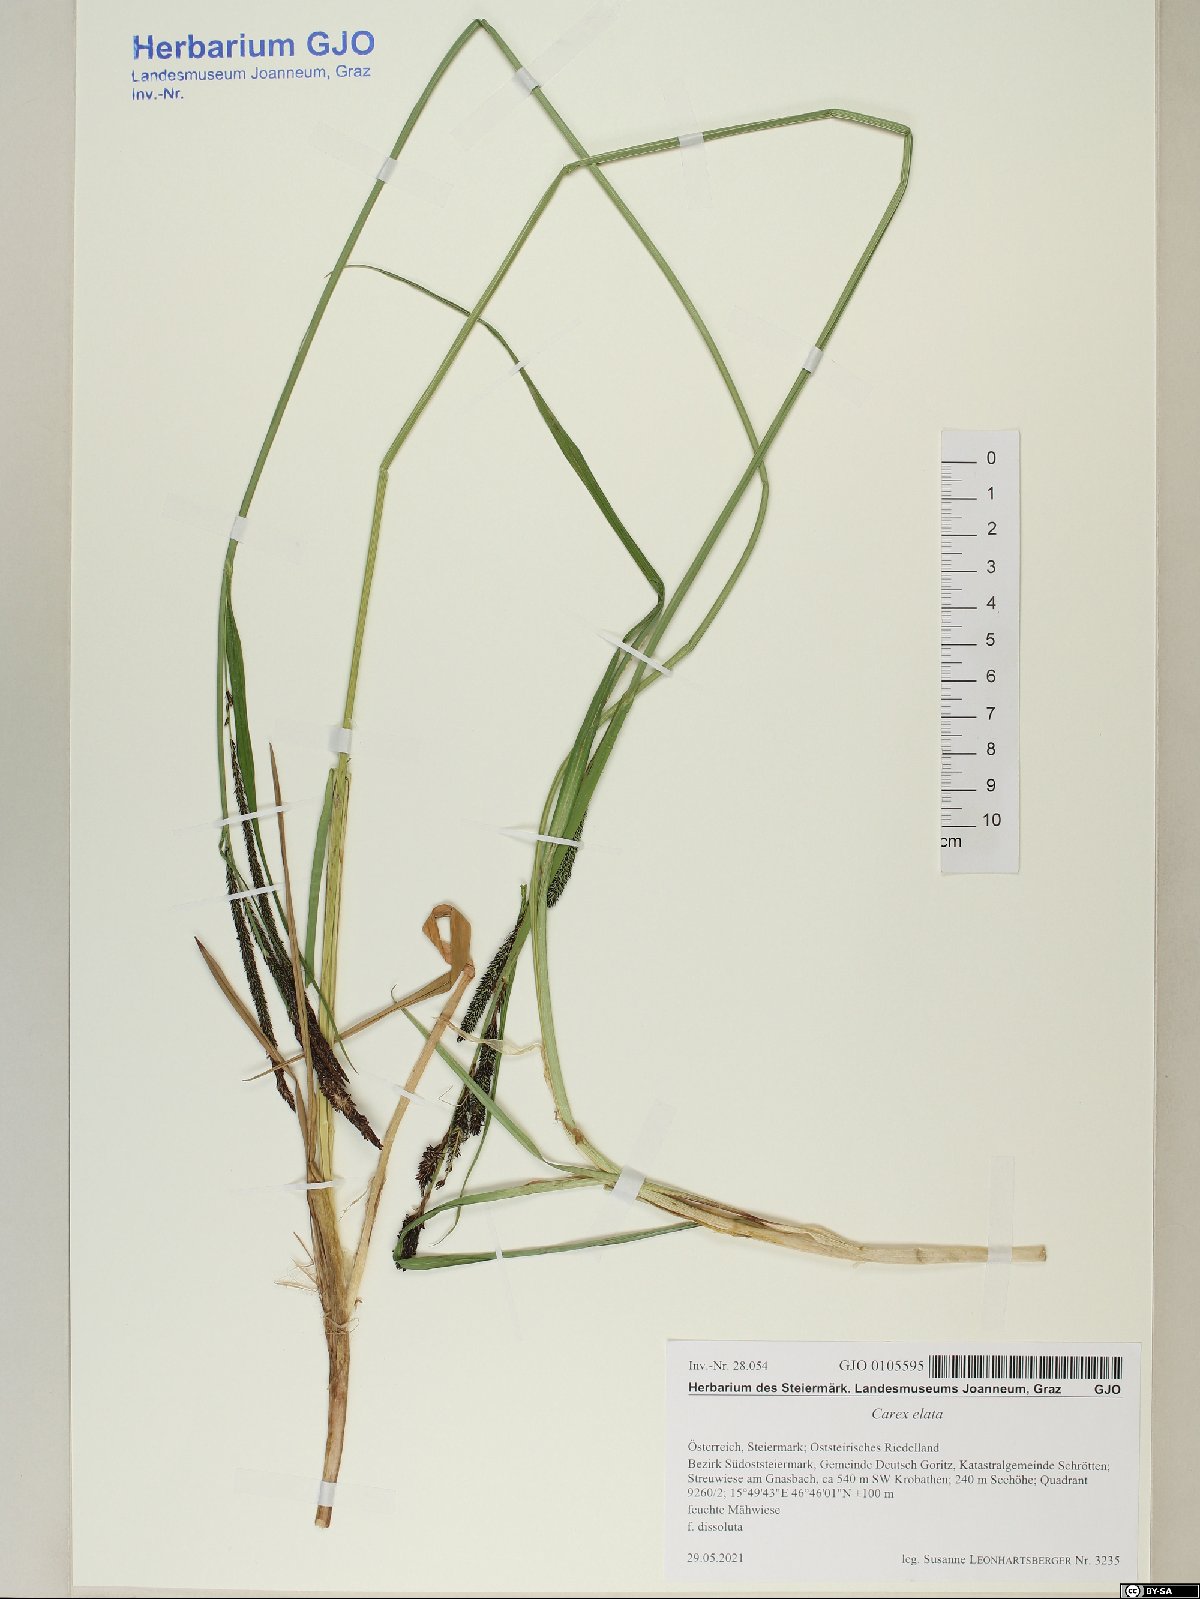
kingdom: Plantae
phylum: Tracheophyta
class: Liliopsida
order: Poales
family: Cyperaceae
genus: Carex
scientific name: Carex buekii
